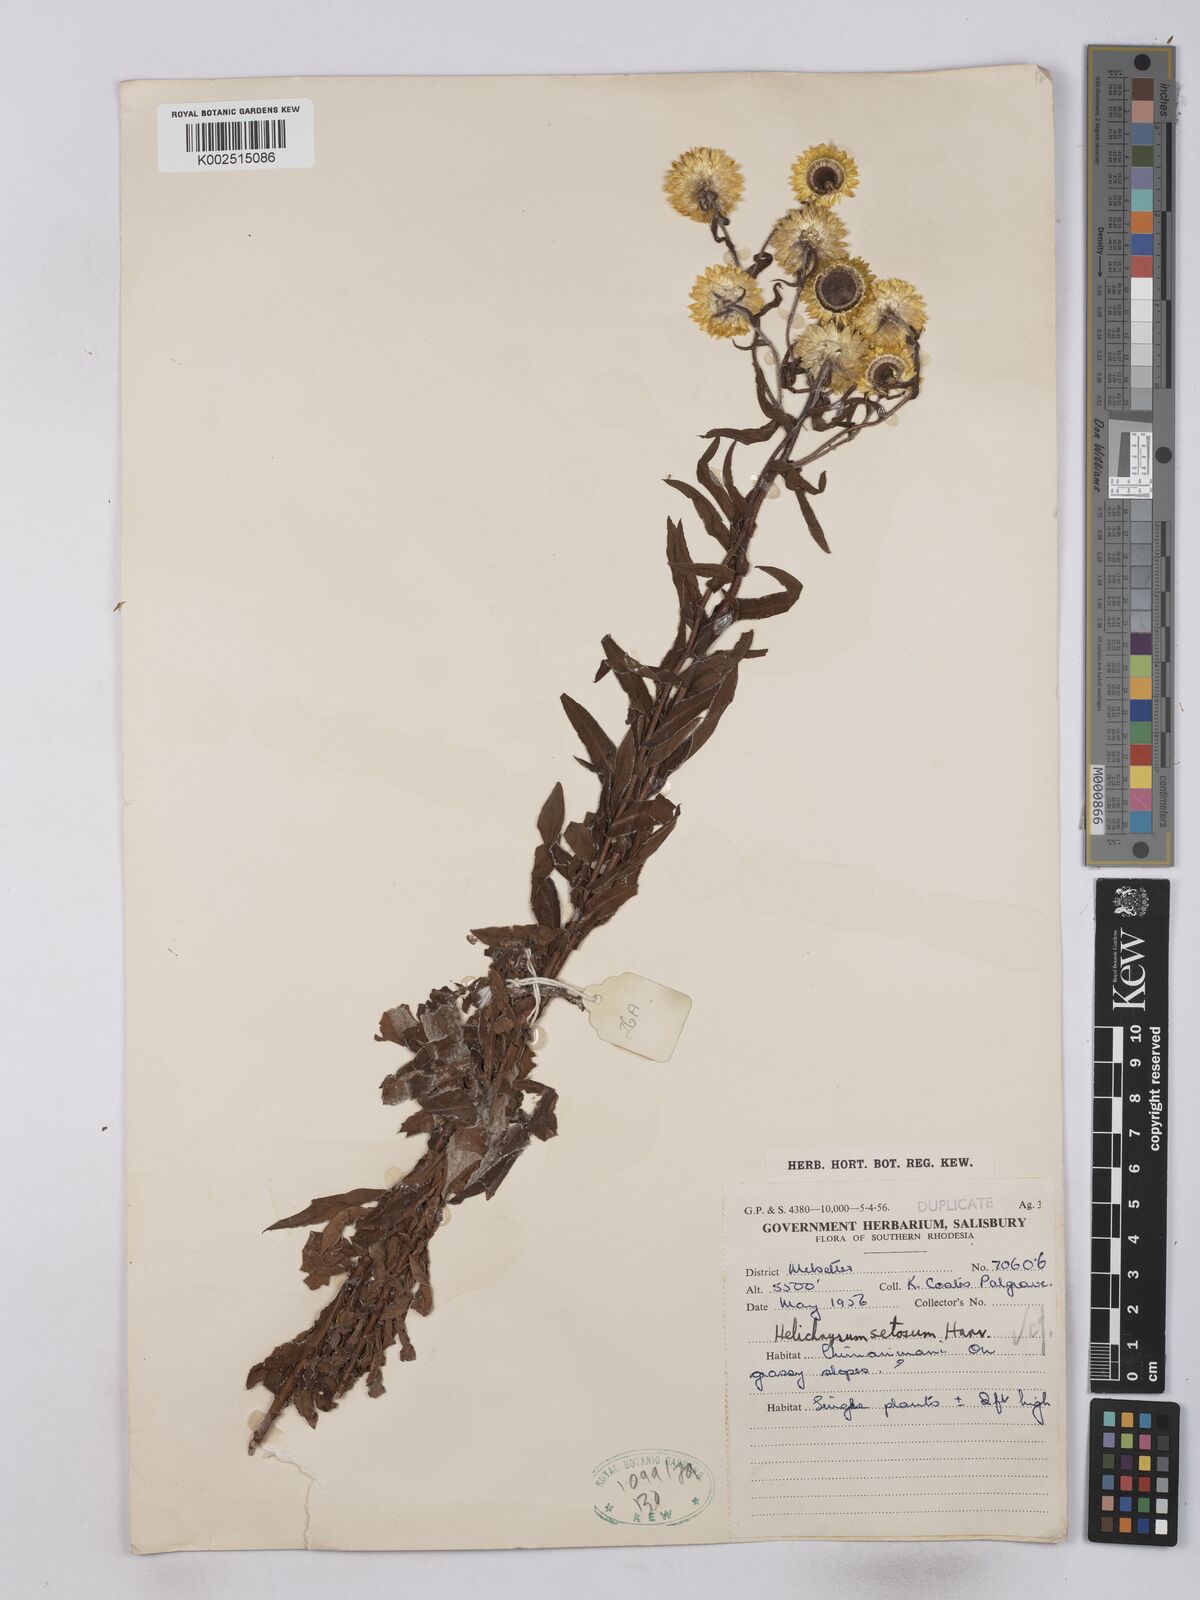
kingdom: Plantae
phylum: Tracheophyta
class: Magnoliopsida
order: Asterales
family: Asteraceae
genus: Helichrysum
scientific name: Helichrysum setosum
